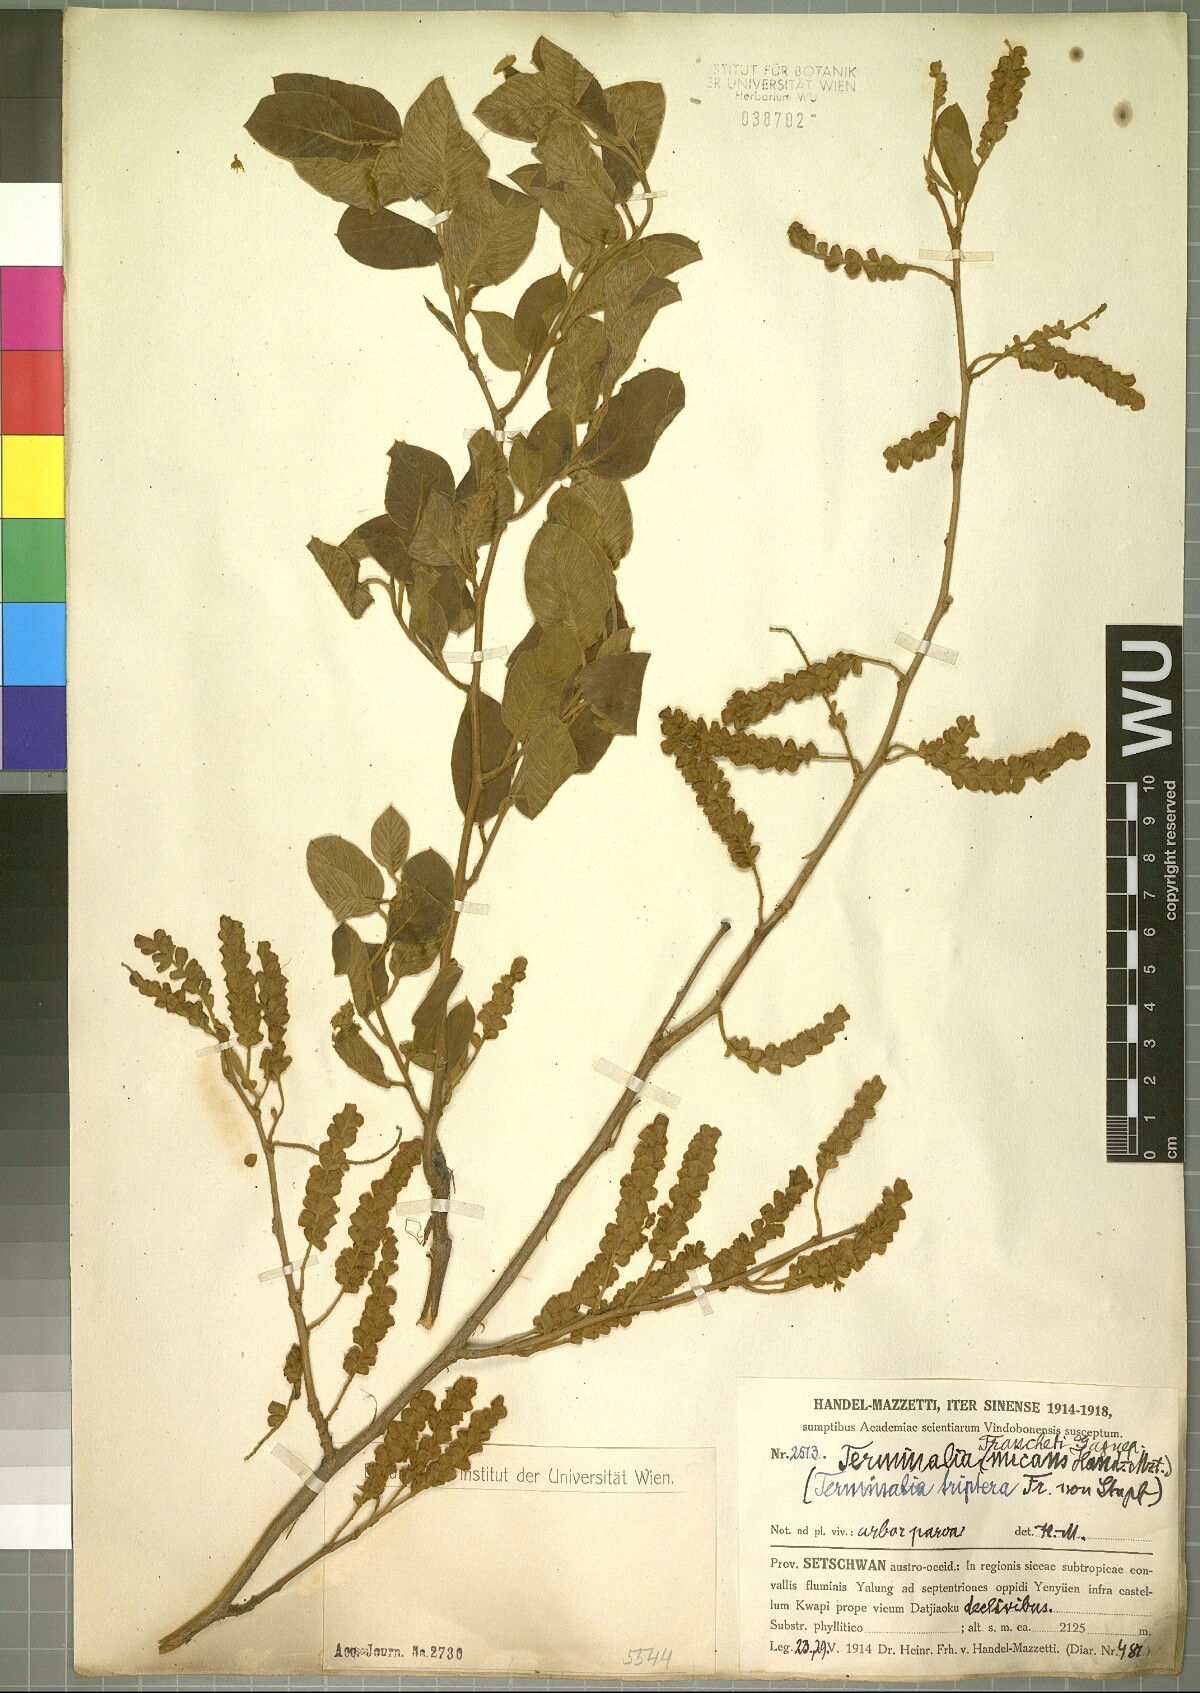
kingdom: Plantae
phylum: Tracheophyta
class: Magnoliopsida
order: Myrtales
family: Combretaceae
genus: Terminalia
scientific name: Terminalia franchetii
